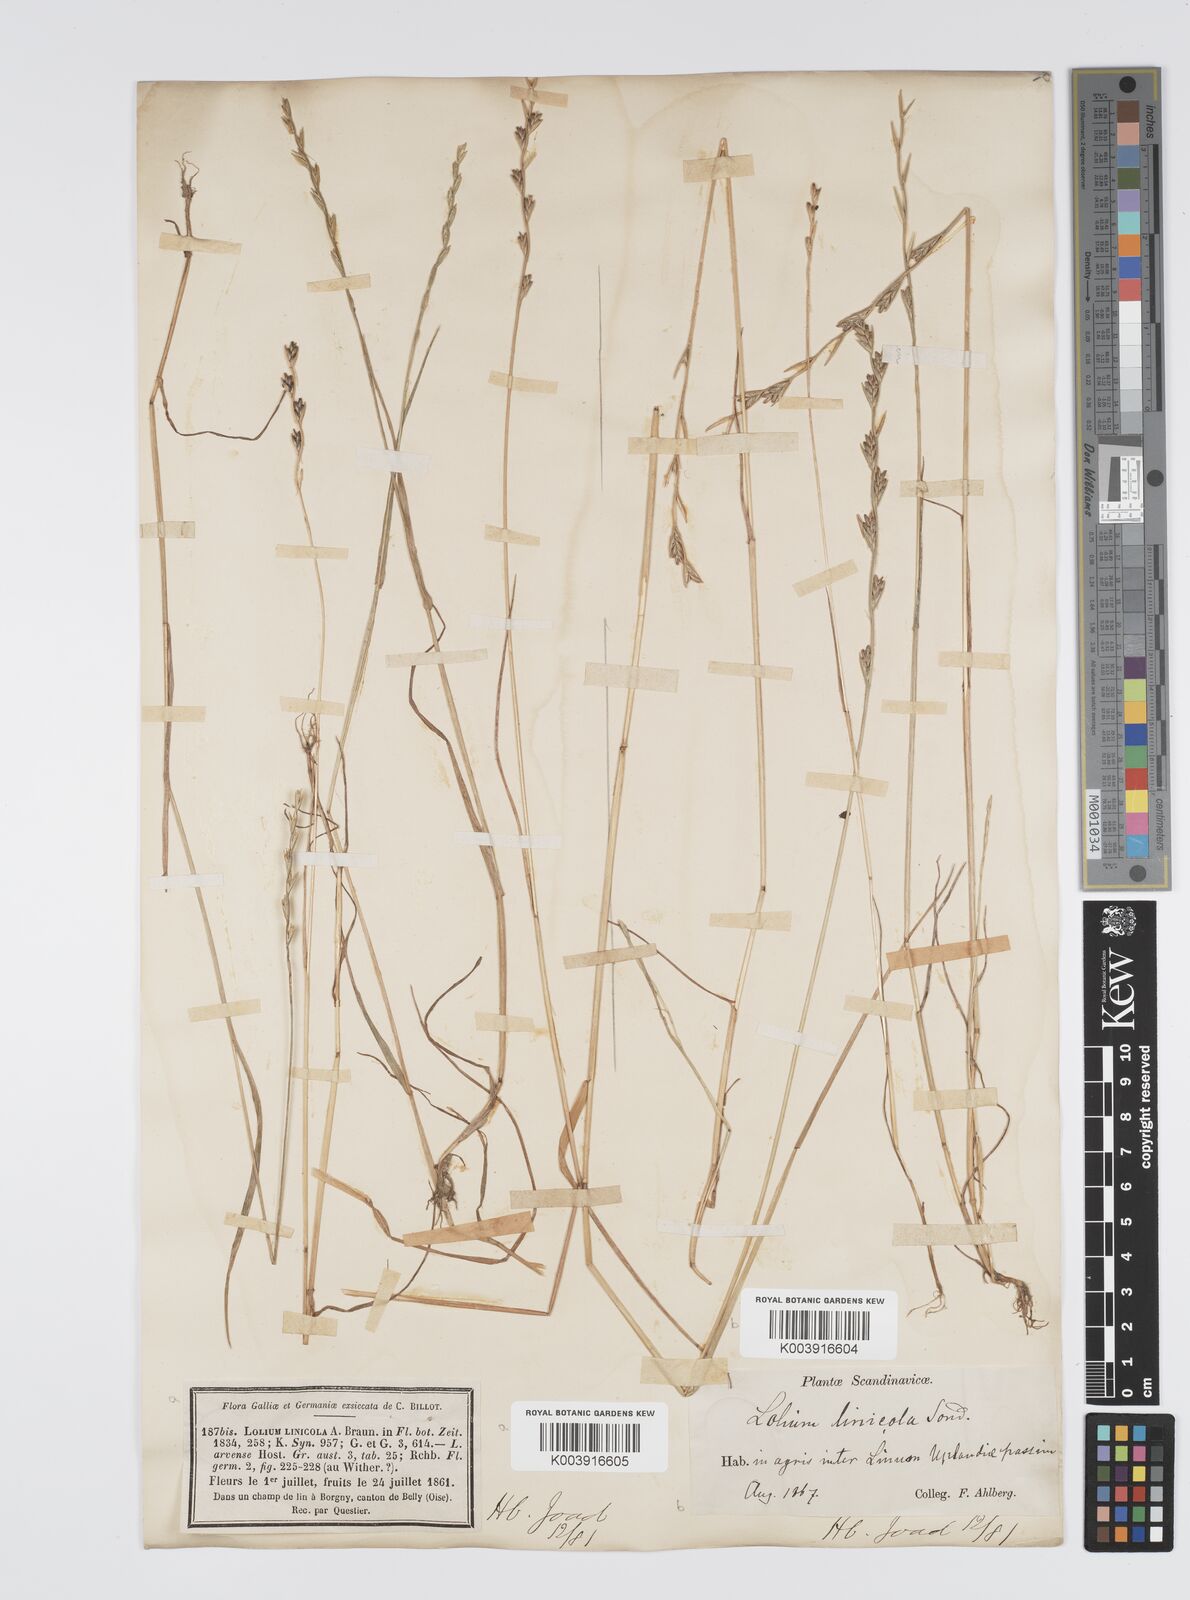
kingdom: Plantae
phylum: Tracheophyta
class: Liliopsida
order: Poales
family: Poaceae
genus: Lolium
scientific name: Lolium remotum
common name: Flaxfield rye-grass
